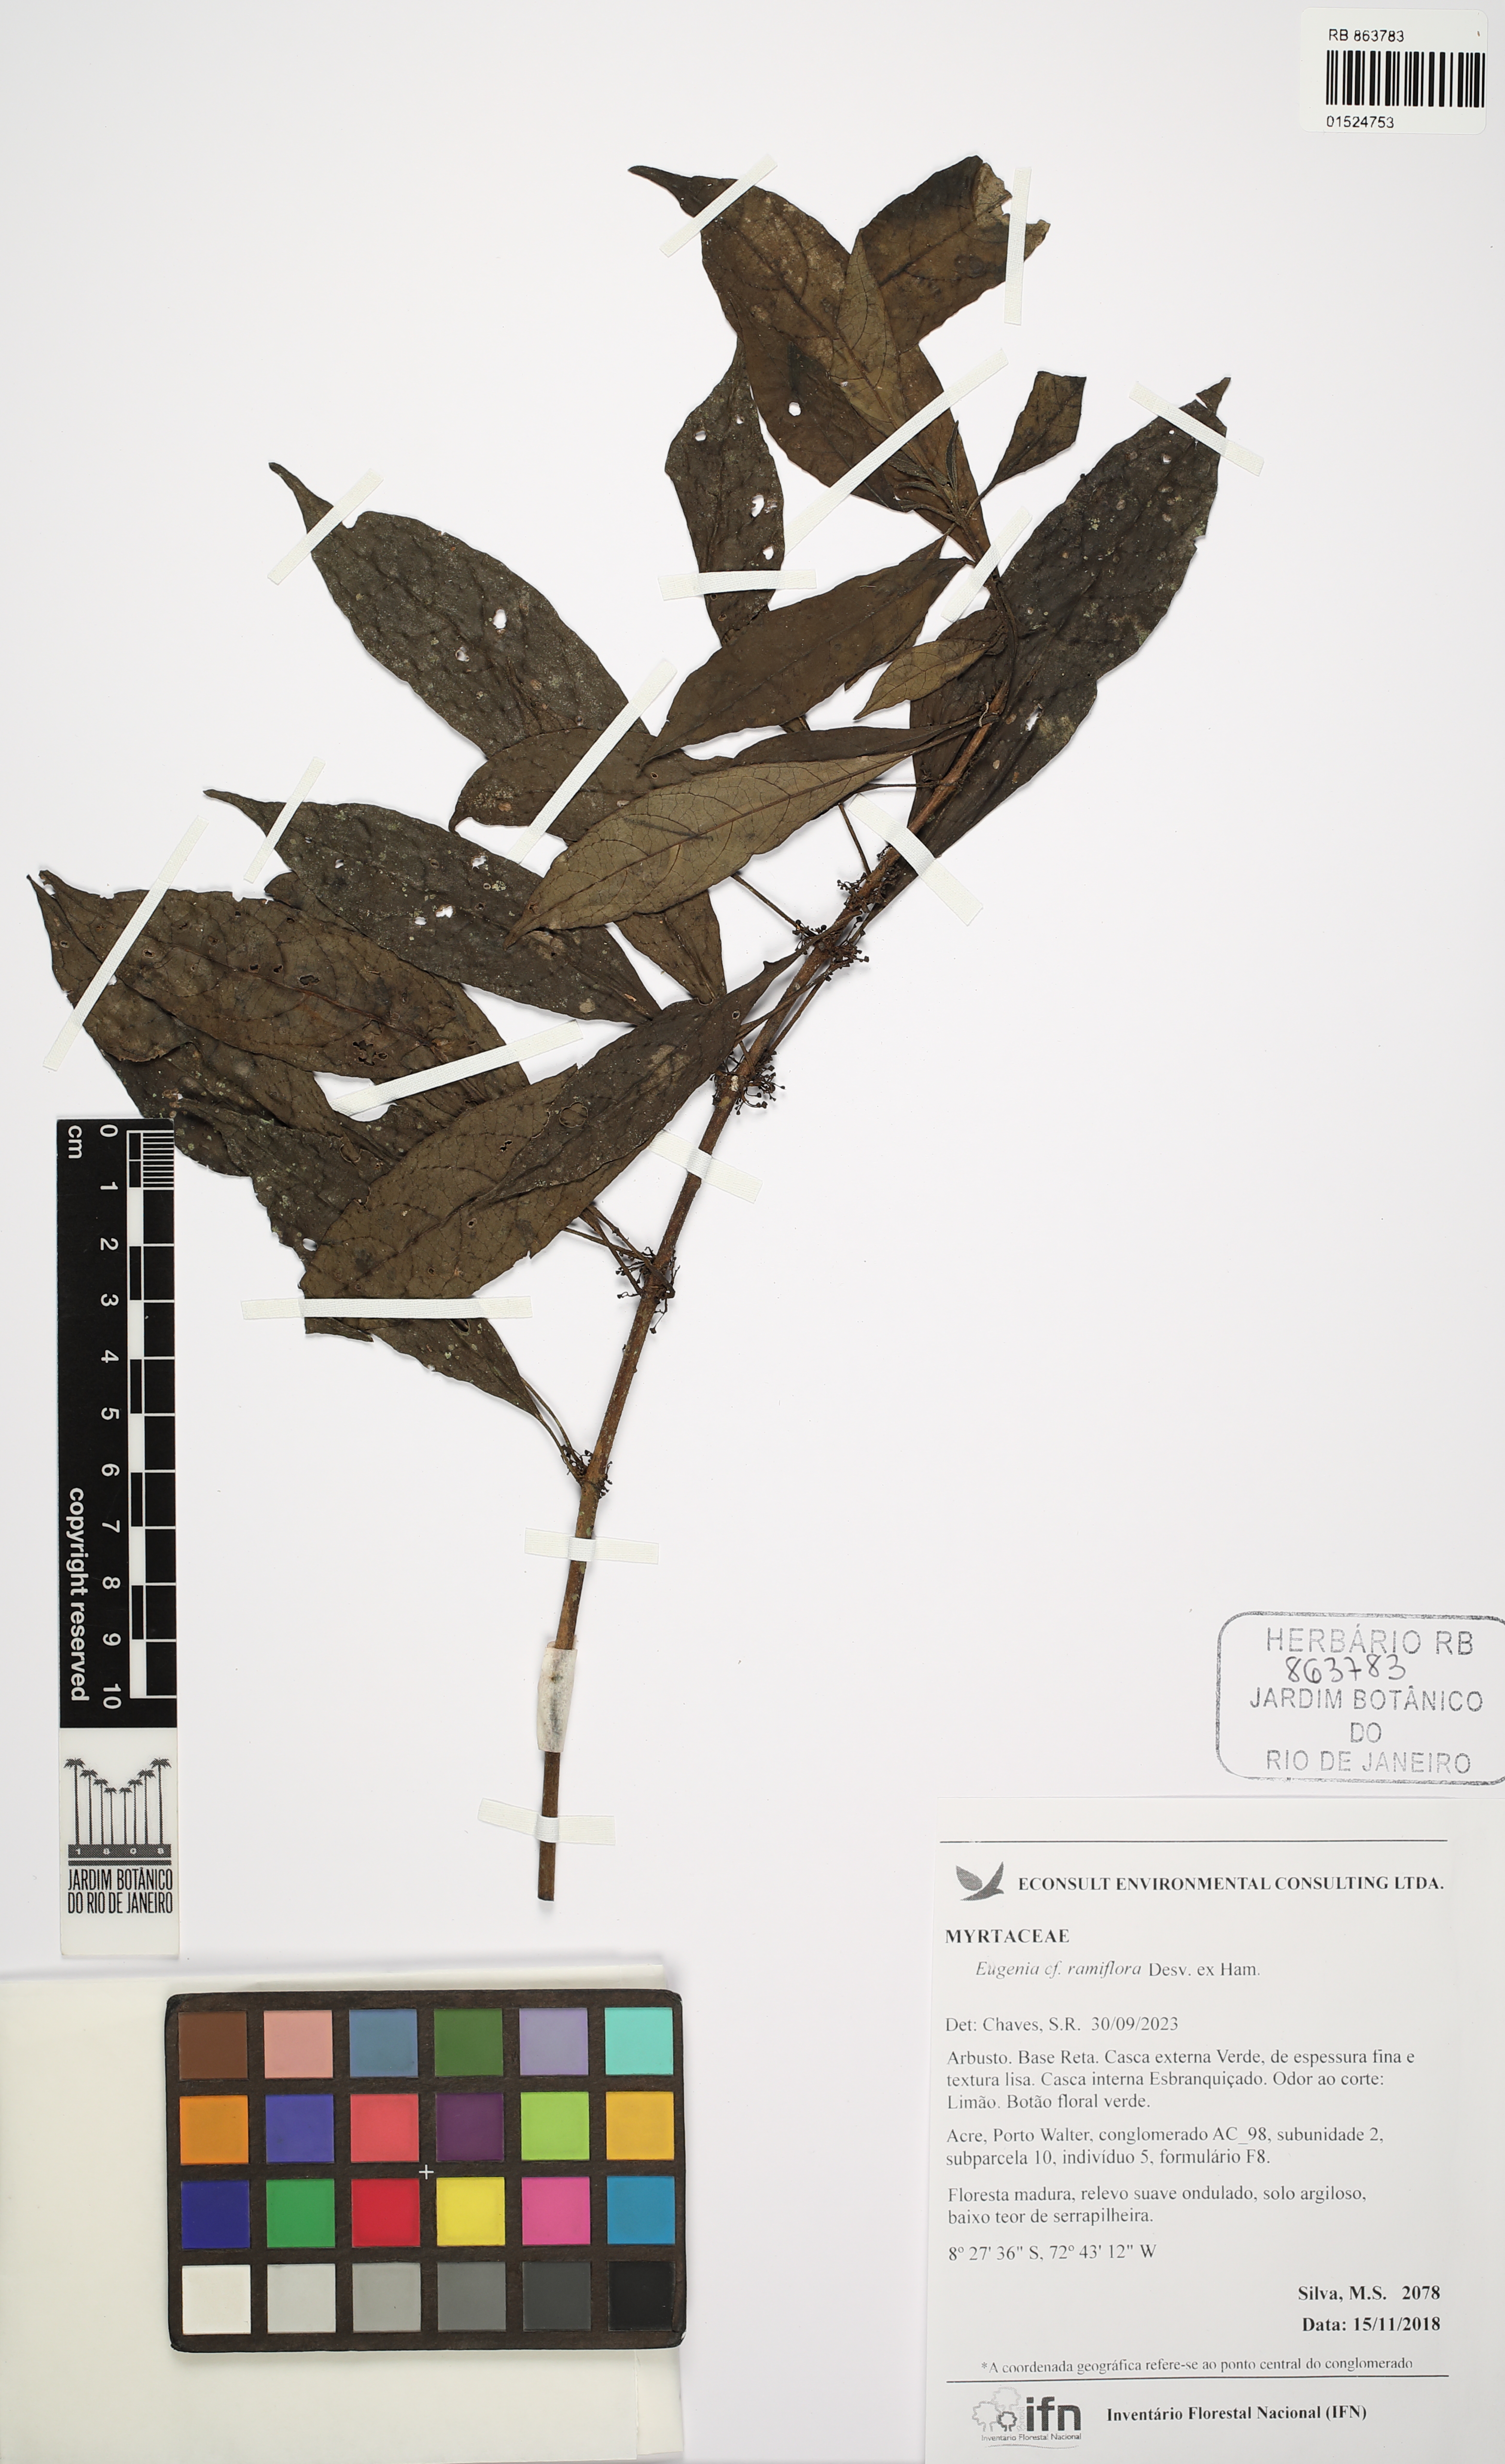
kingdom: Plantae
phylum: Tracheophyta
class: Magnoliopsida
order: Myrtales
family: Myrtaceae
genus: Eugenia
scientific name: Eugenia ramiflora
